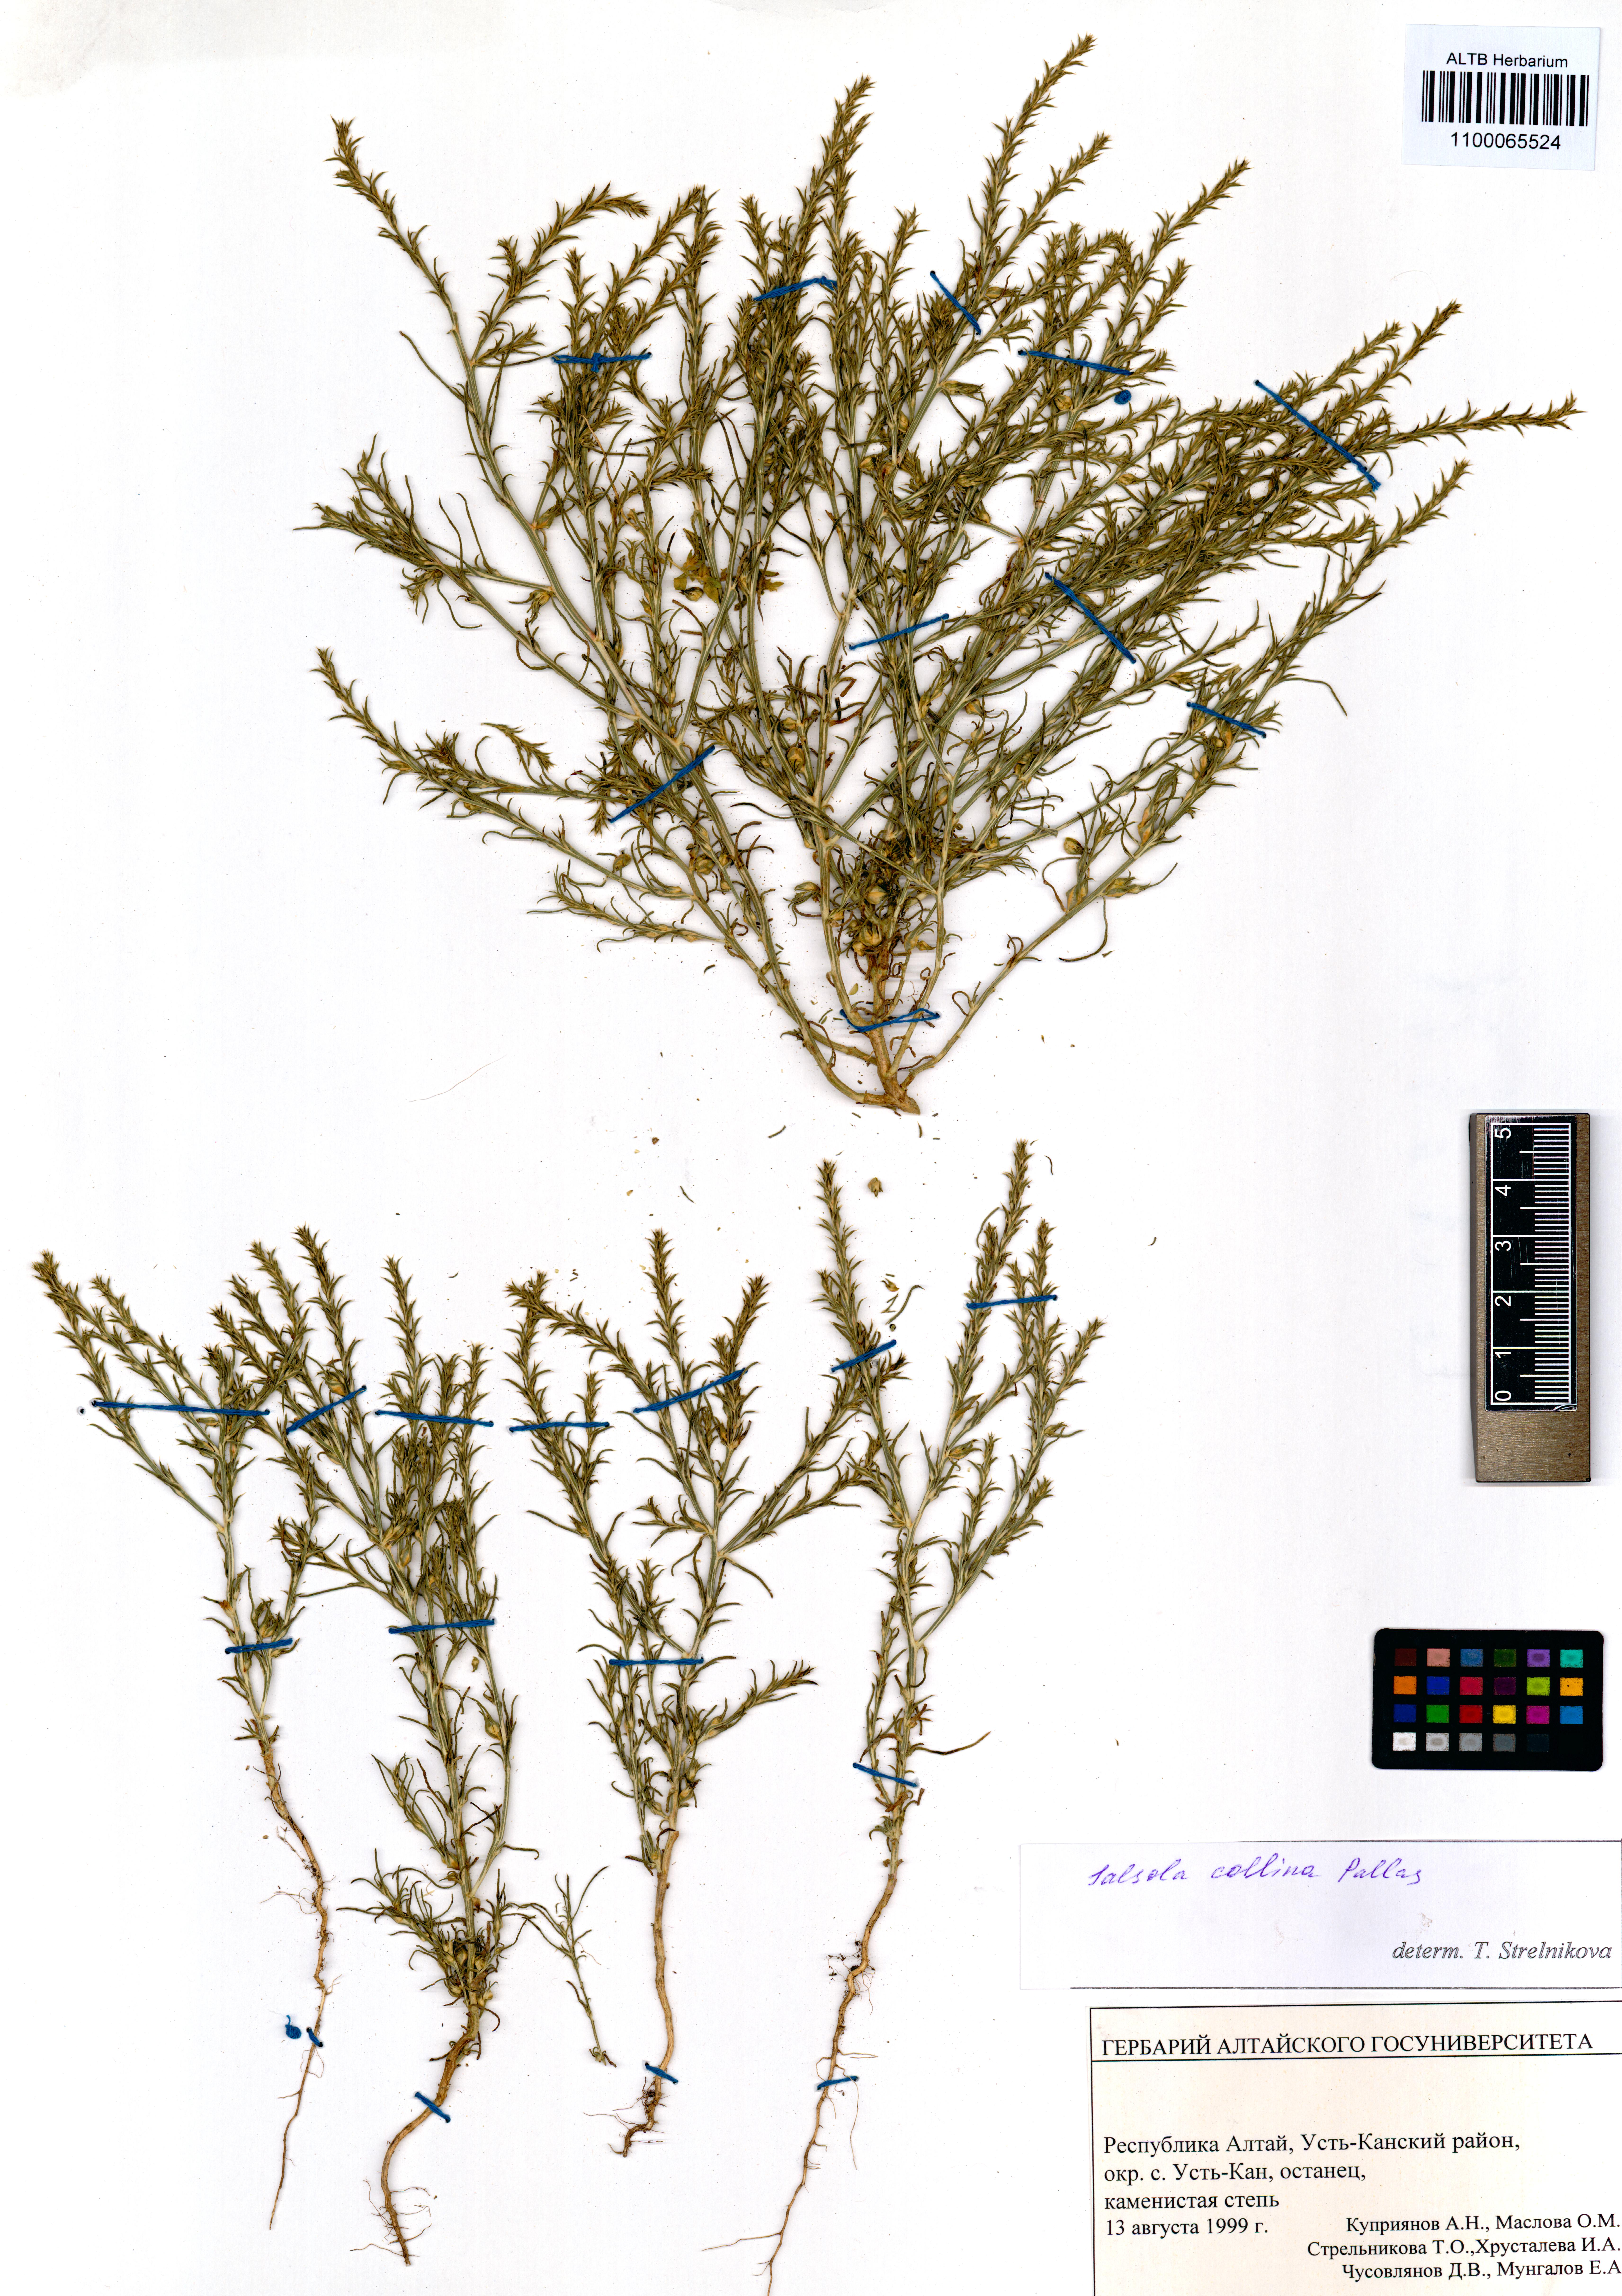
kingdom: Plantae
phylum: Tracheophyta
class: Magnoliopsida
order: Caryophyllales
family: Amaranthaceae
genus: Salsola
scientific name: Salsola collina
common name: Tumbleweed
